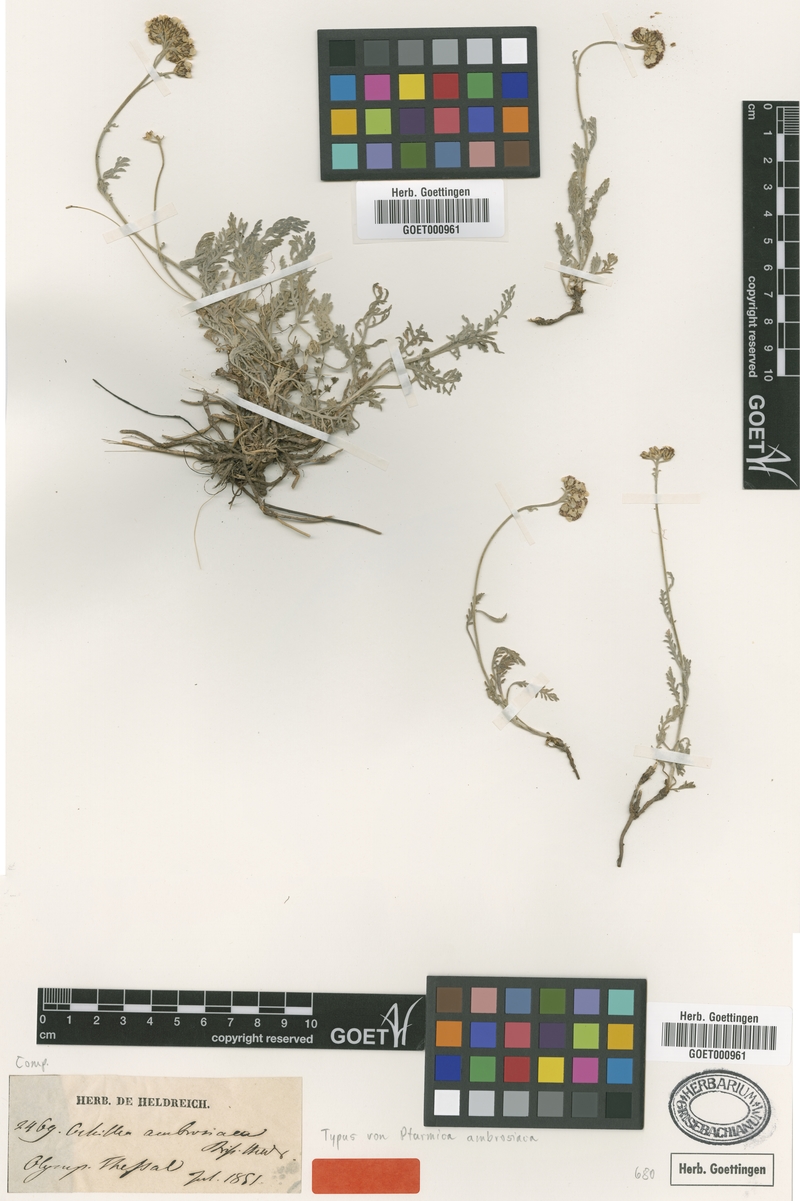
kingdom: Plantae
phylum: Tracheophyta
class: Magnoliopsida
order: Asterales
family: Asteraceae
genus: Achillea
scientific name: Achillea ambrosiaca
